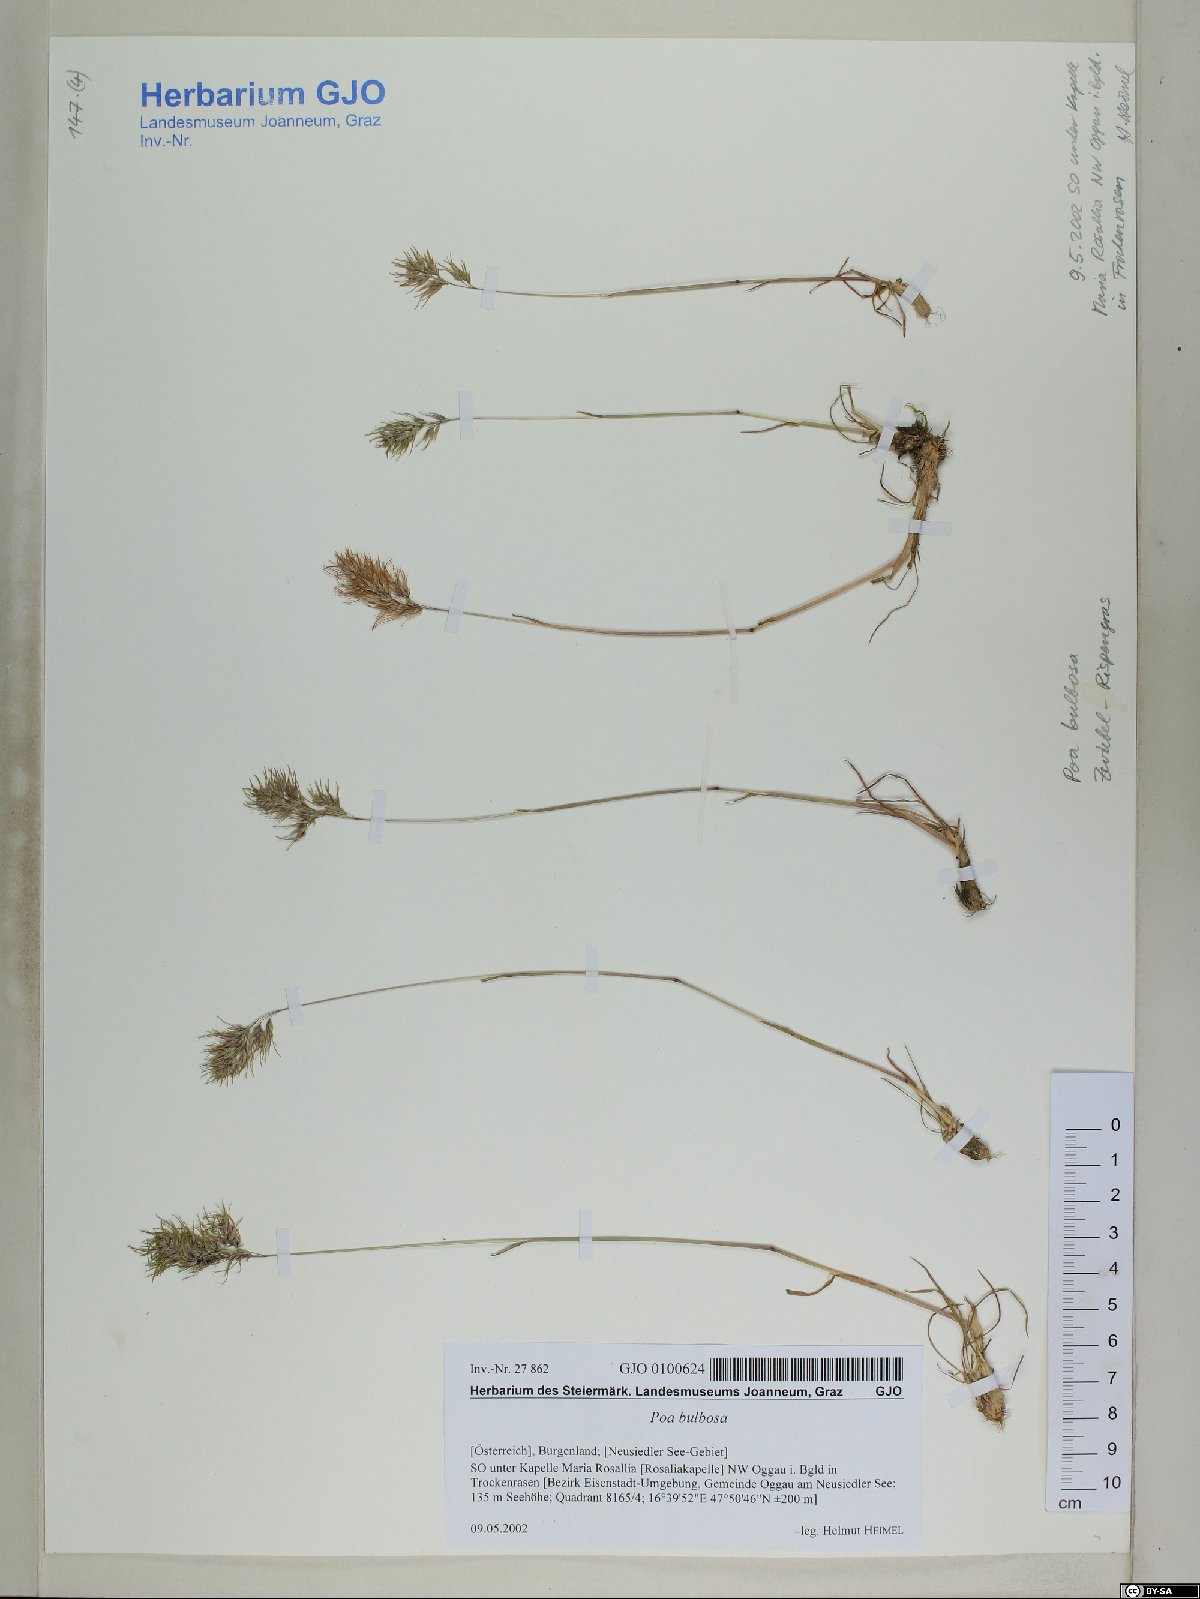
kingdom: Plantae
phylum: Tracheophyta
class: Liliopsida
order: Poales
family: Poaceae
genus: Poa
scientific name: Poa bulbosa
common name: Bulbous bluegrass
